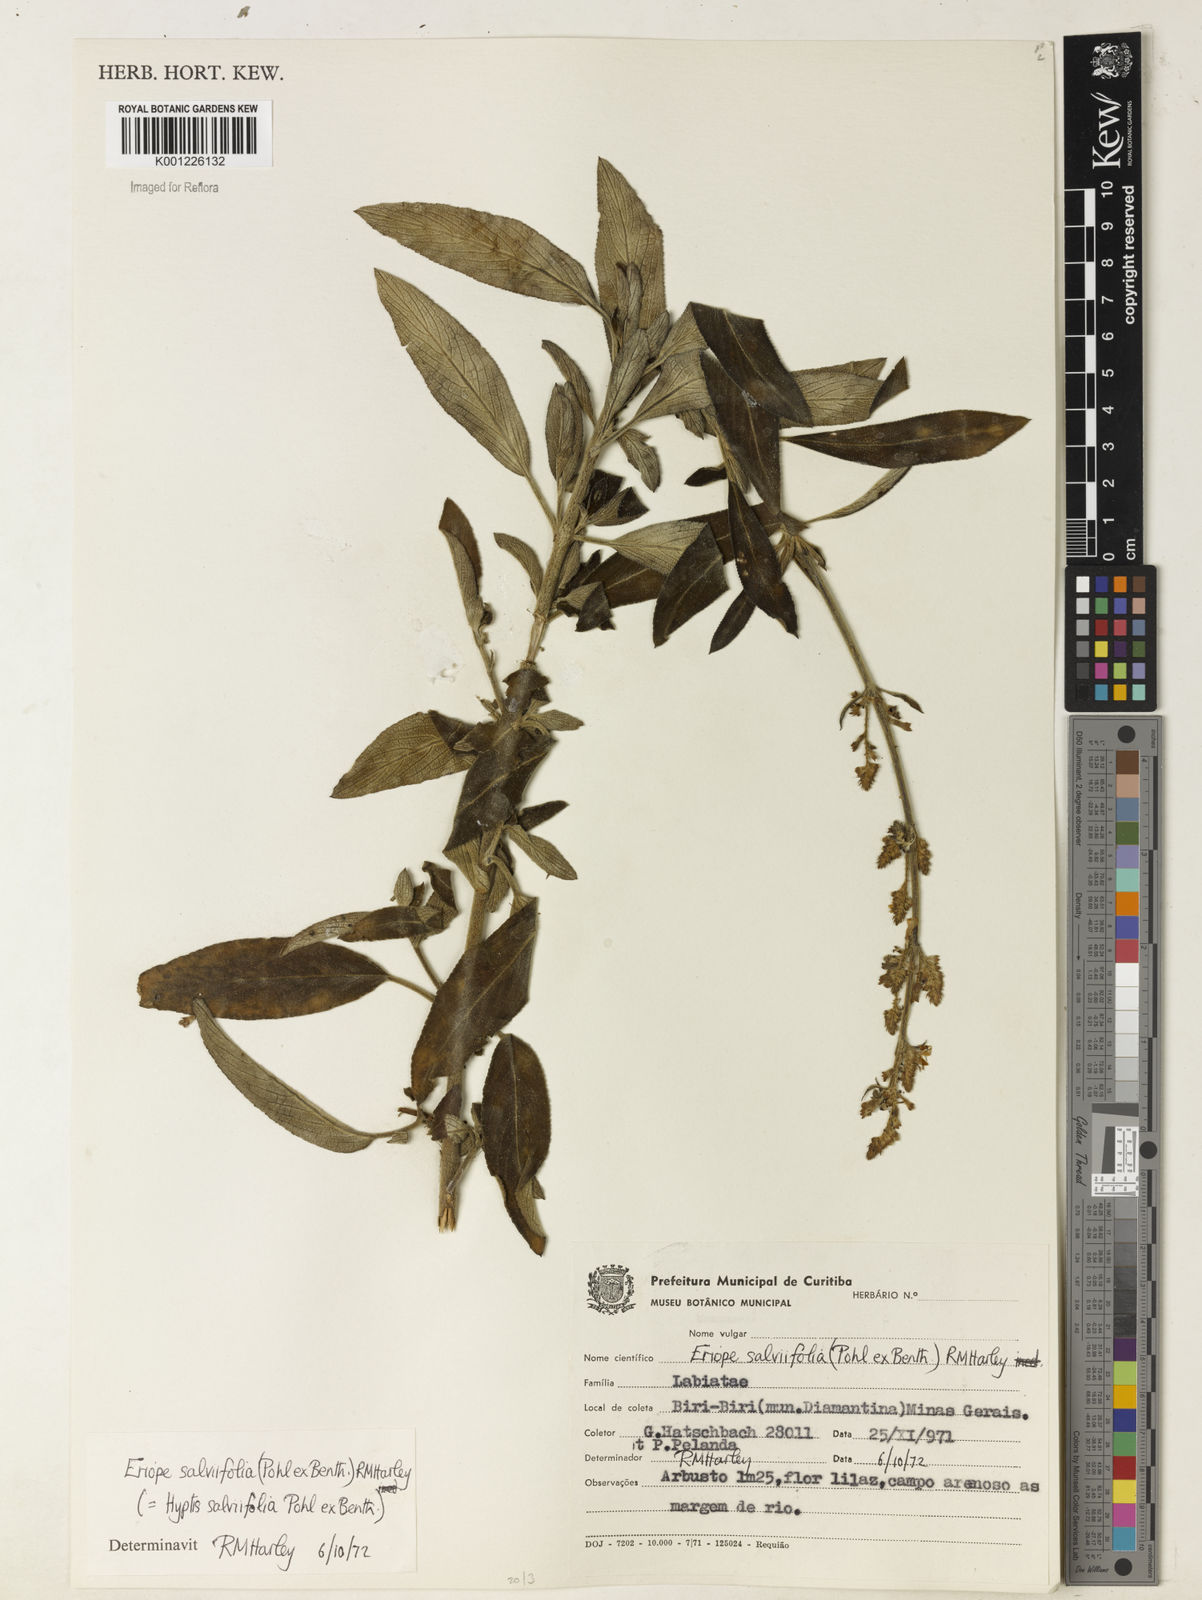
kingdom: Plantae
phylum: Tracheophyta
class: Magnoliopsida
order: Lamiales
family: Lamiaceae
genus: Eriope
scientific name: Eriope salviifolia
